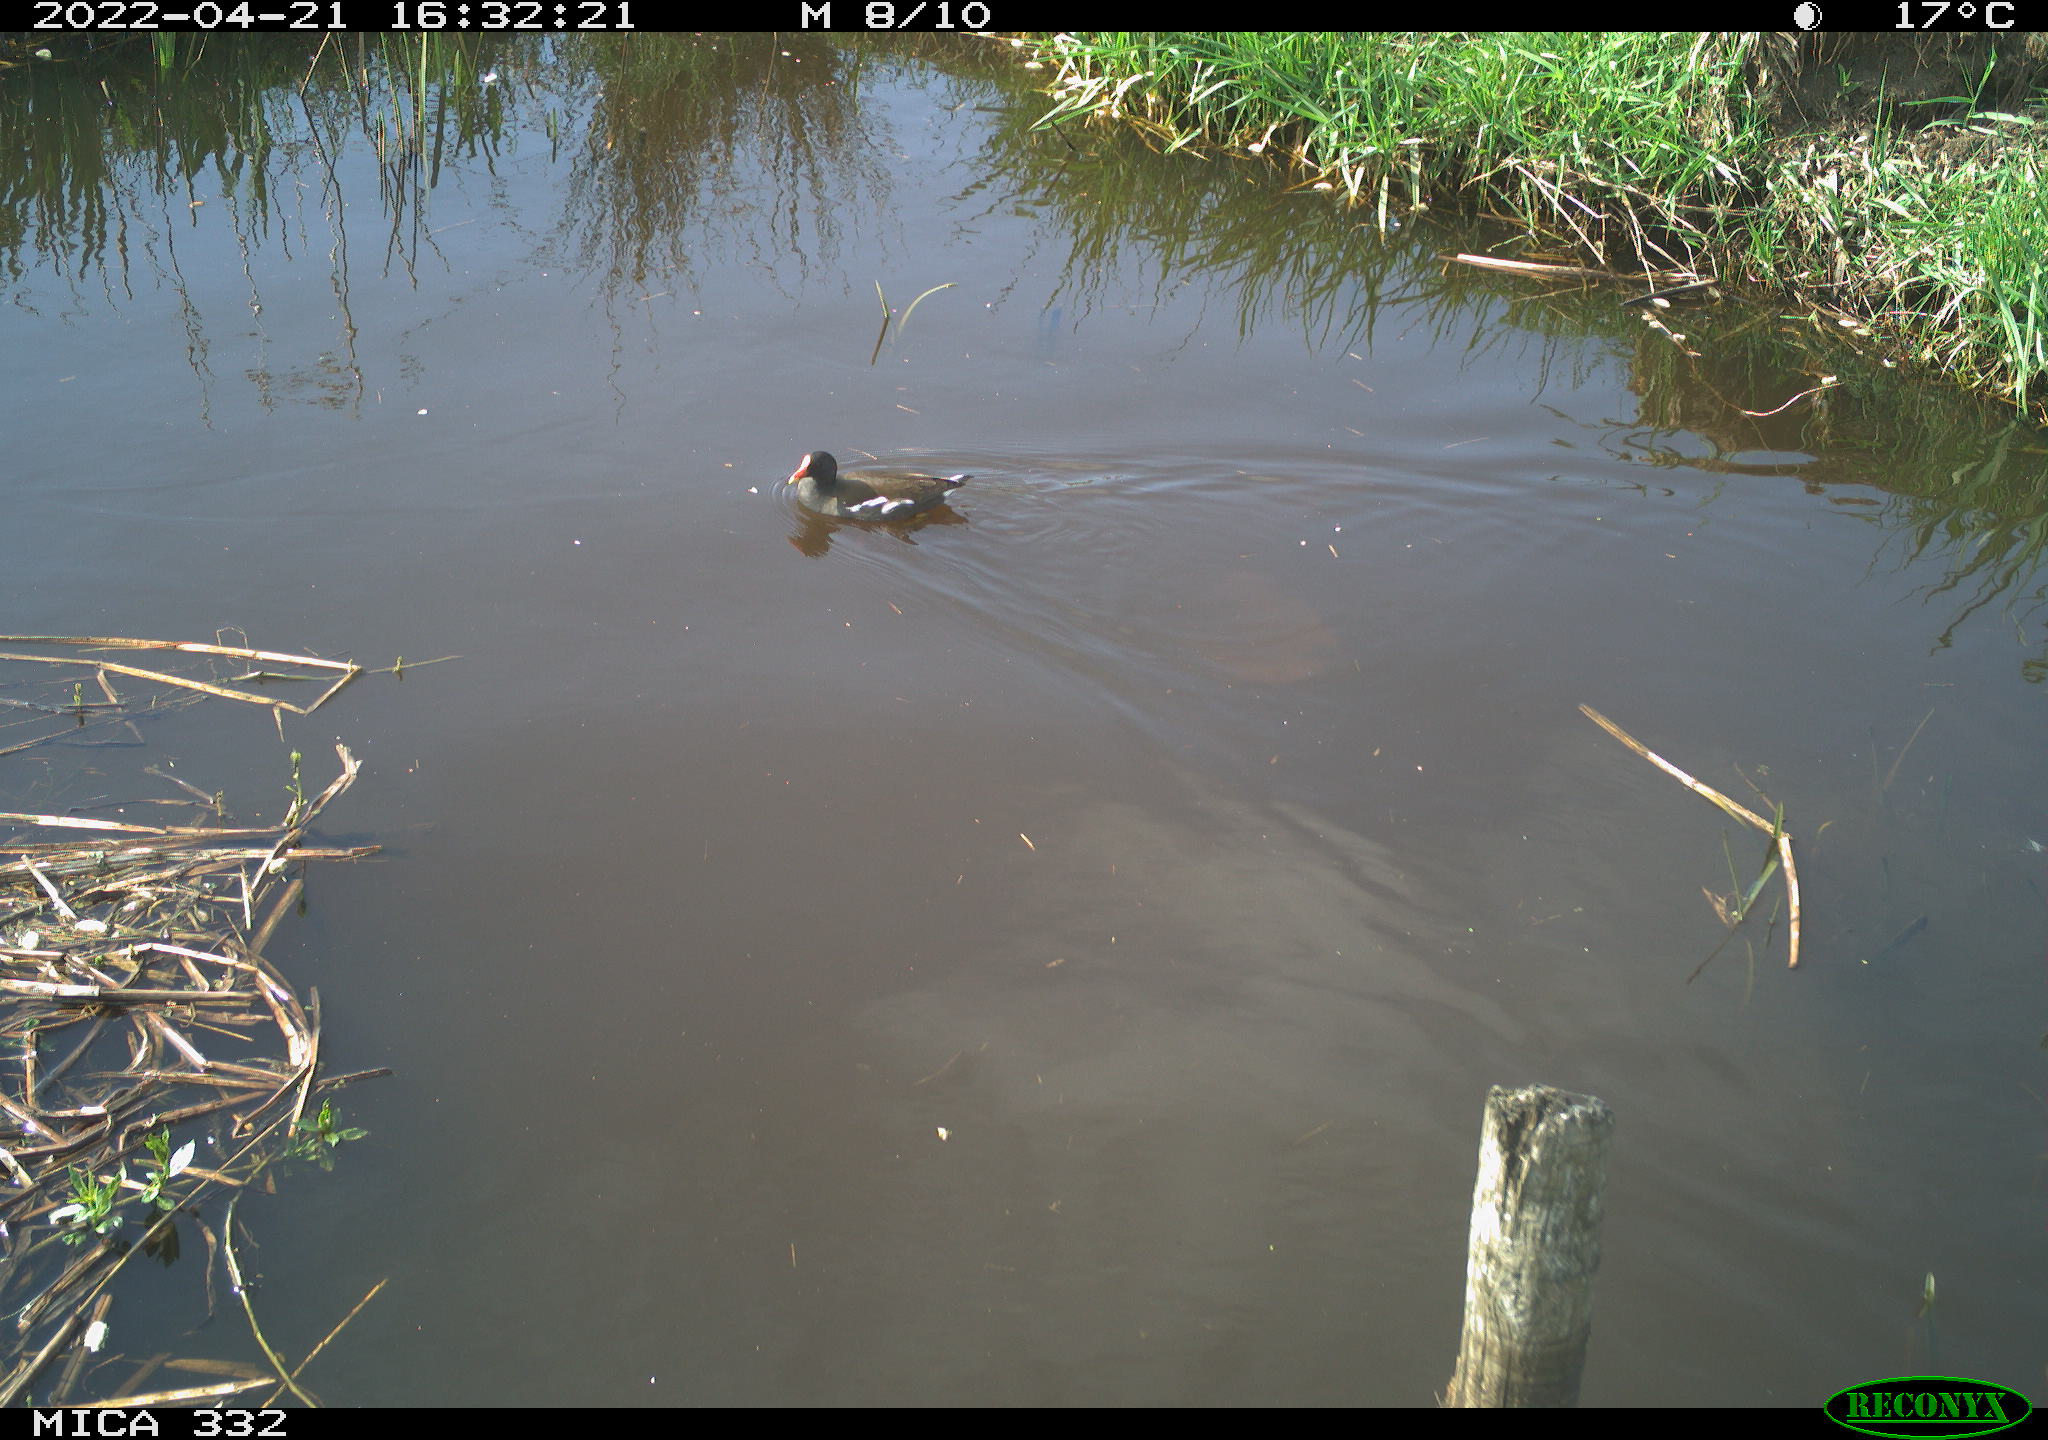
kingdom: Animalia
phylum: Chordata
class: Aves
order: Gruiformes
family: Rallidae
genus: Gallinula
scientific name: Gallinula chloropus
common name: Common moorhen
